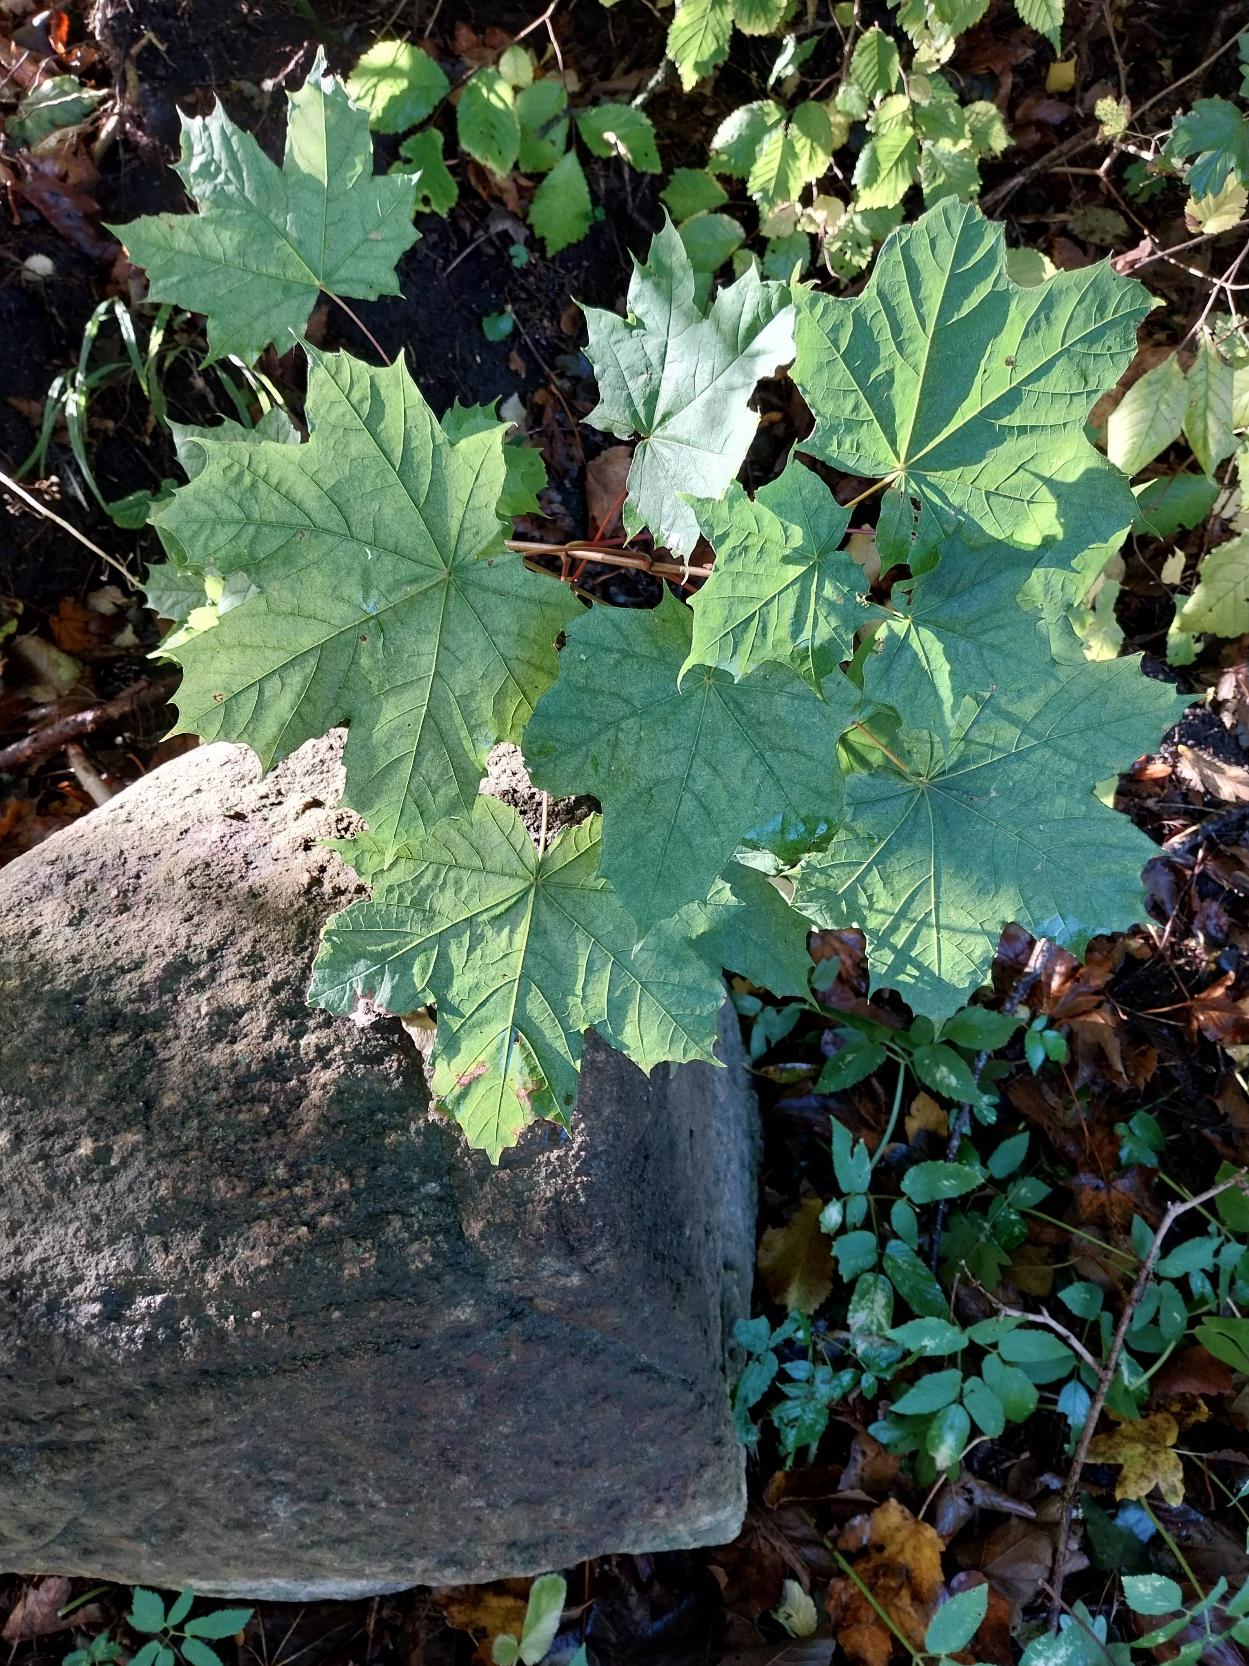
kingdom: Plantae
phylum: Tracheophyta
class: Magnoliopsida
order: Sapindales
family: Sapindaceae
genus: Acer
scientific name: Acer platanoides
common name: Spids-løn
